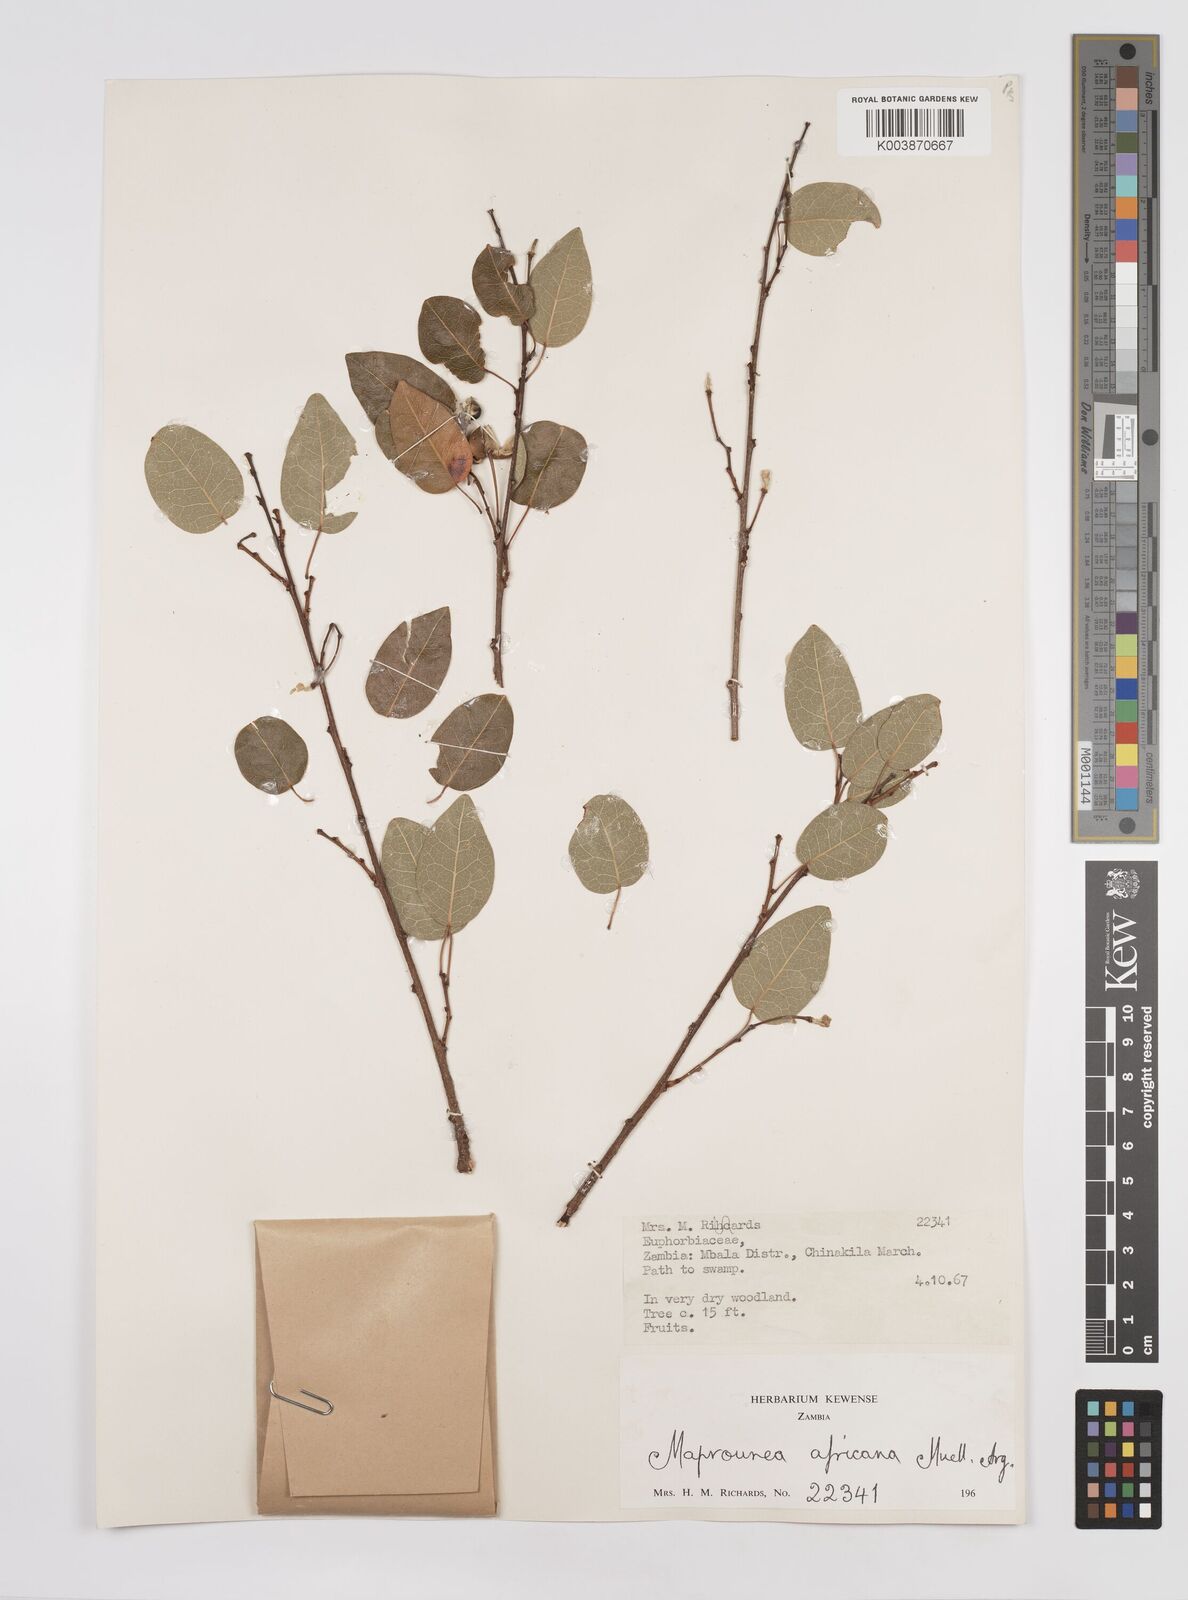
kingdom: Plantae
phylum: Tracheophyta
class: Magnoliopsida
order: Malpighiales
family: Euphorbiaceae
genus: Maprounea
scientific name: Maprounea africana
